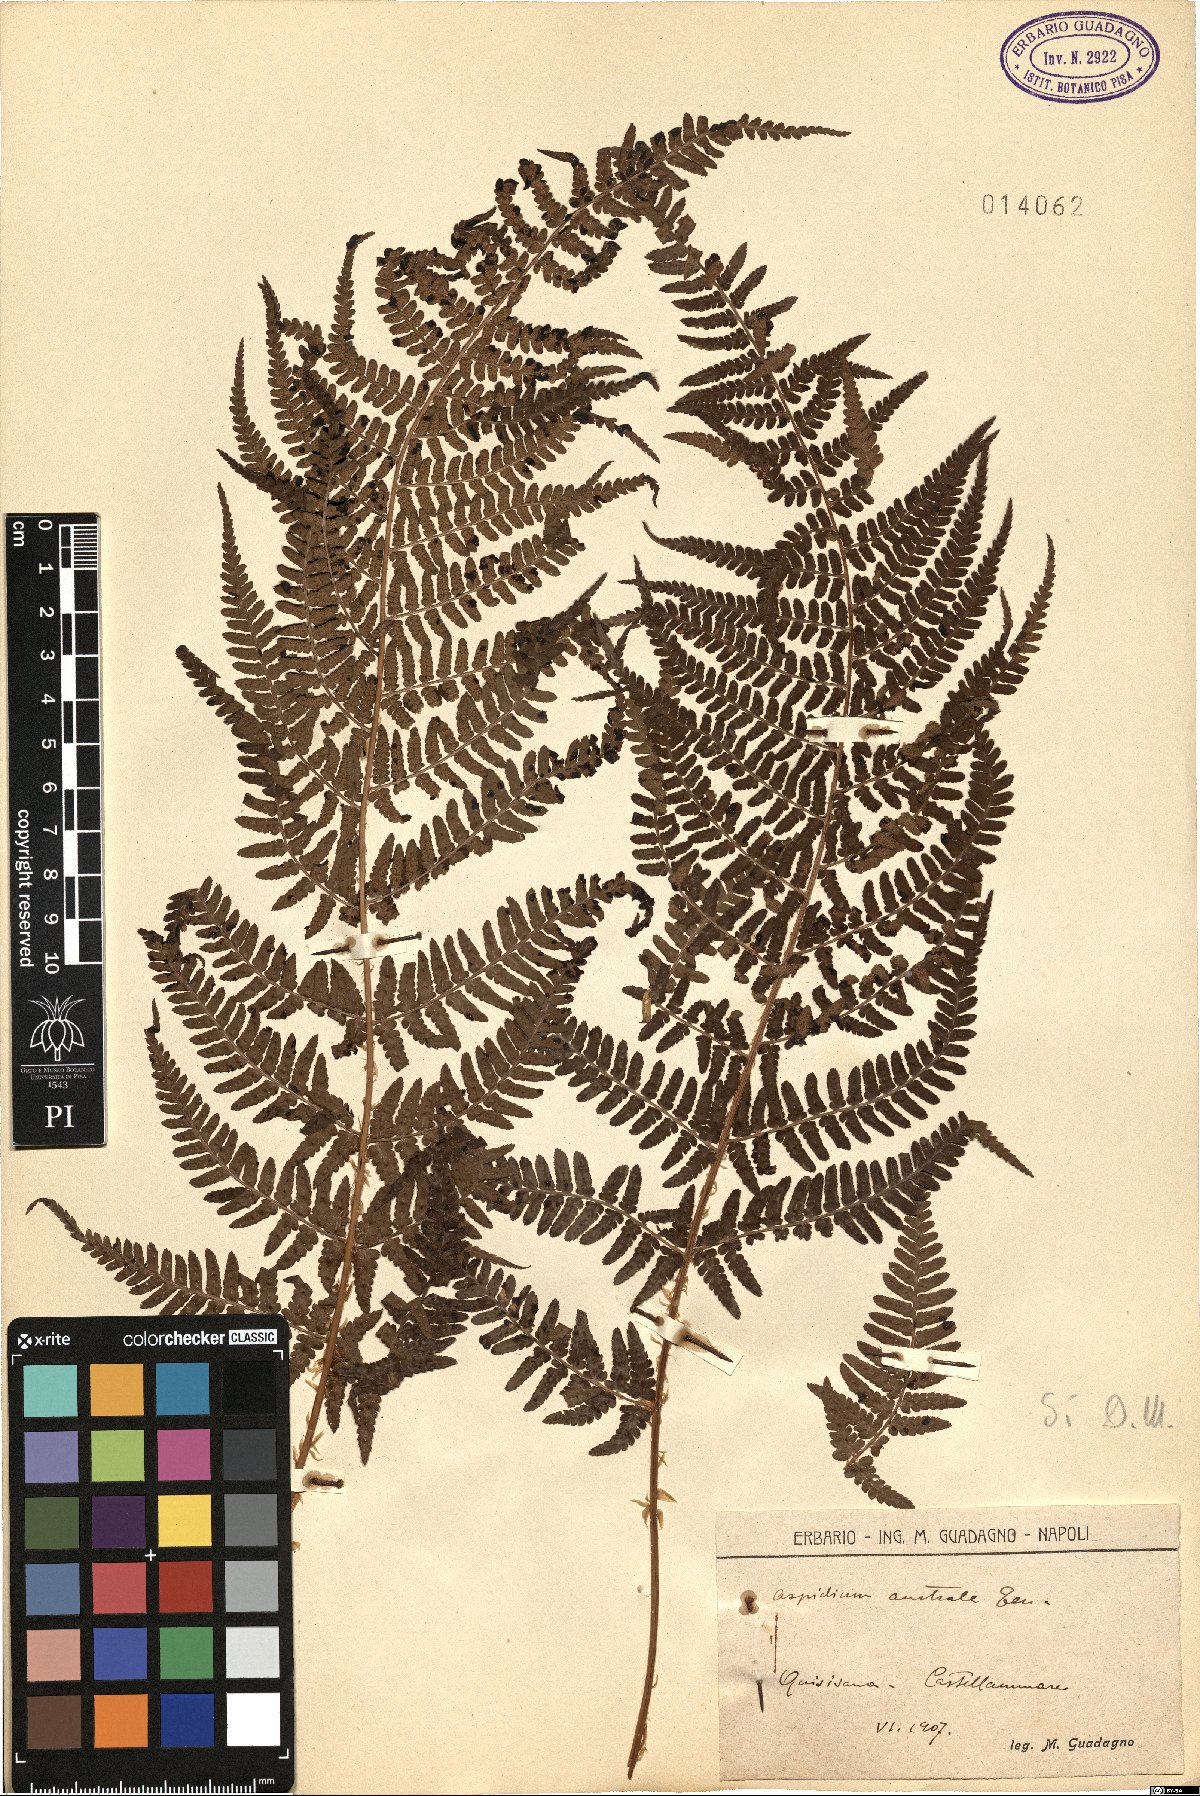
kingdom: Plantae
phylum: Tracheophyta
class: Polypodiopsida
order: Polypodiales
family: Dryopteridaceae
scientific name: Dryopteridaceae
